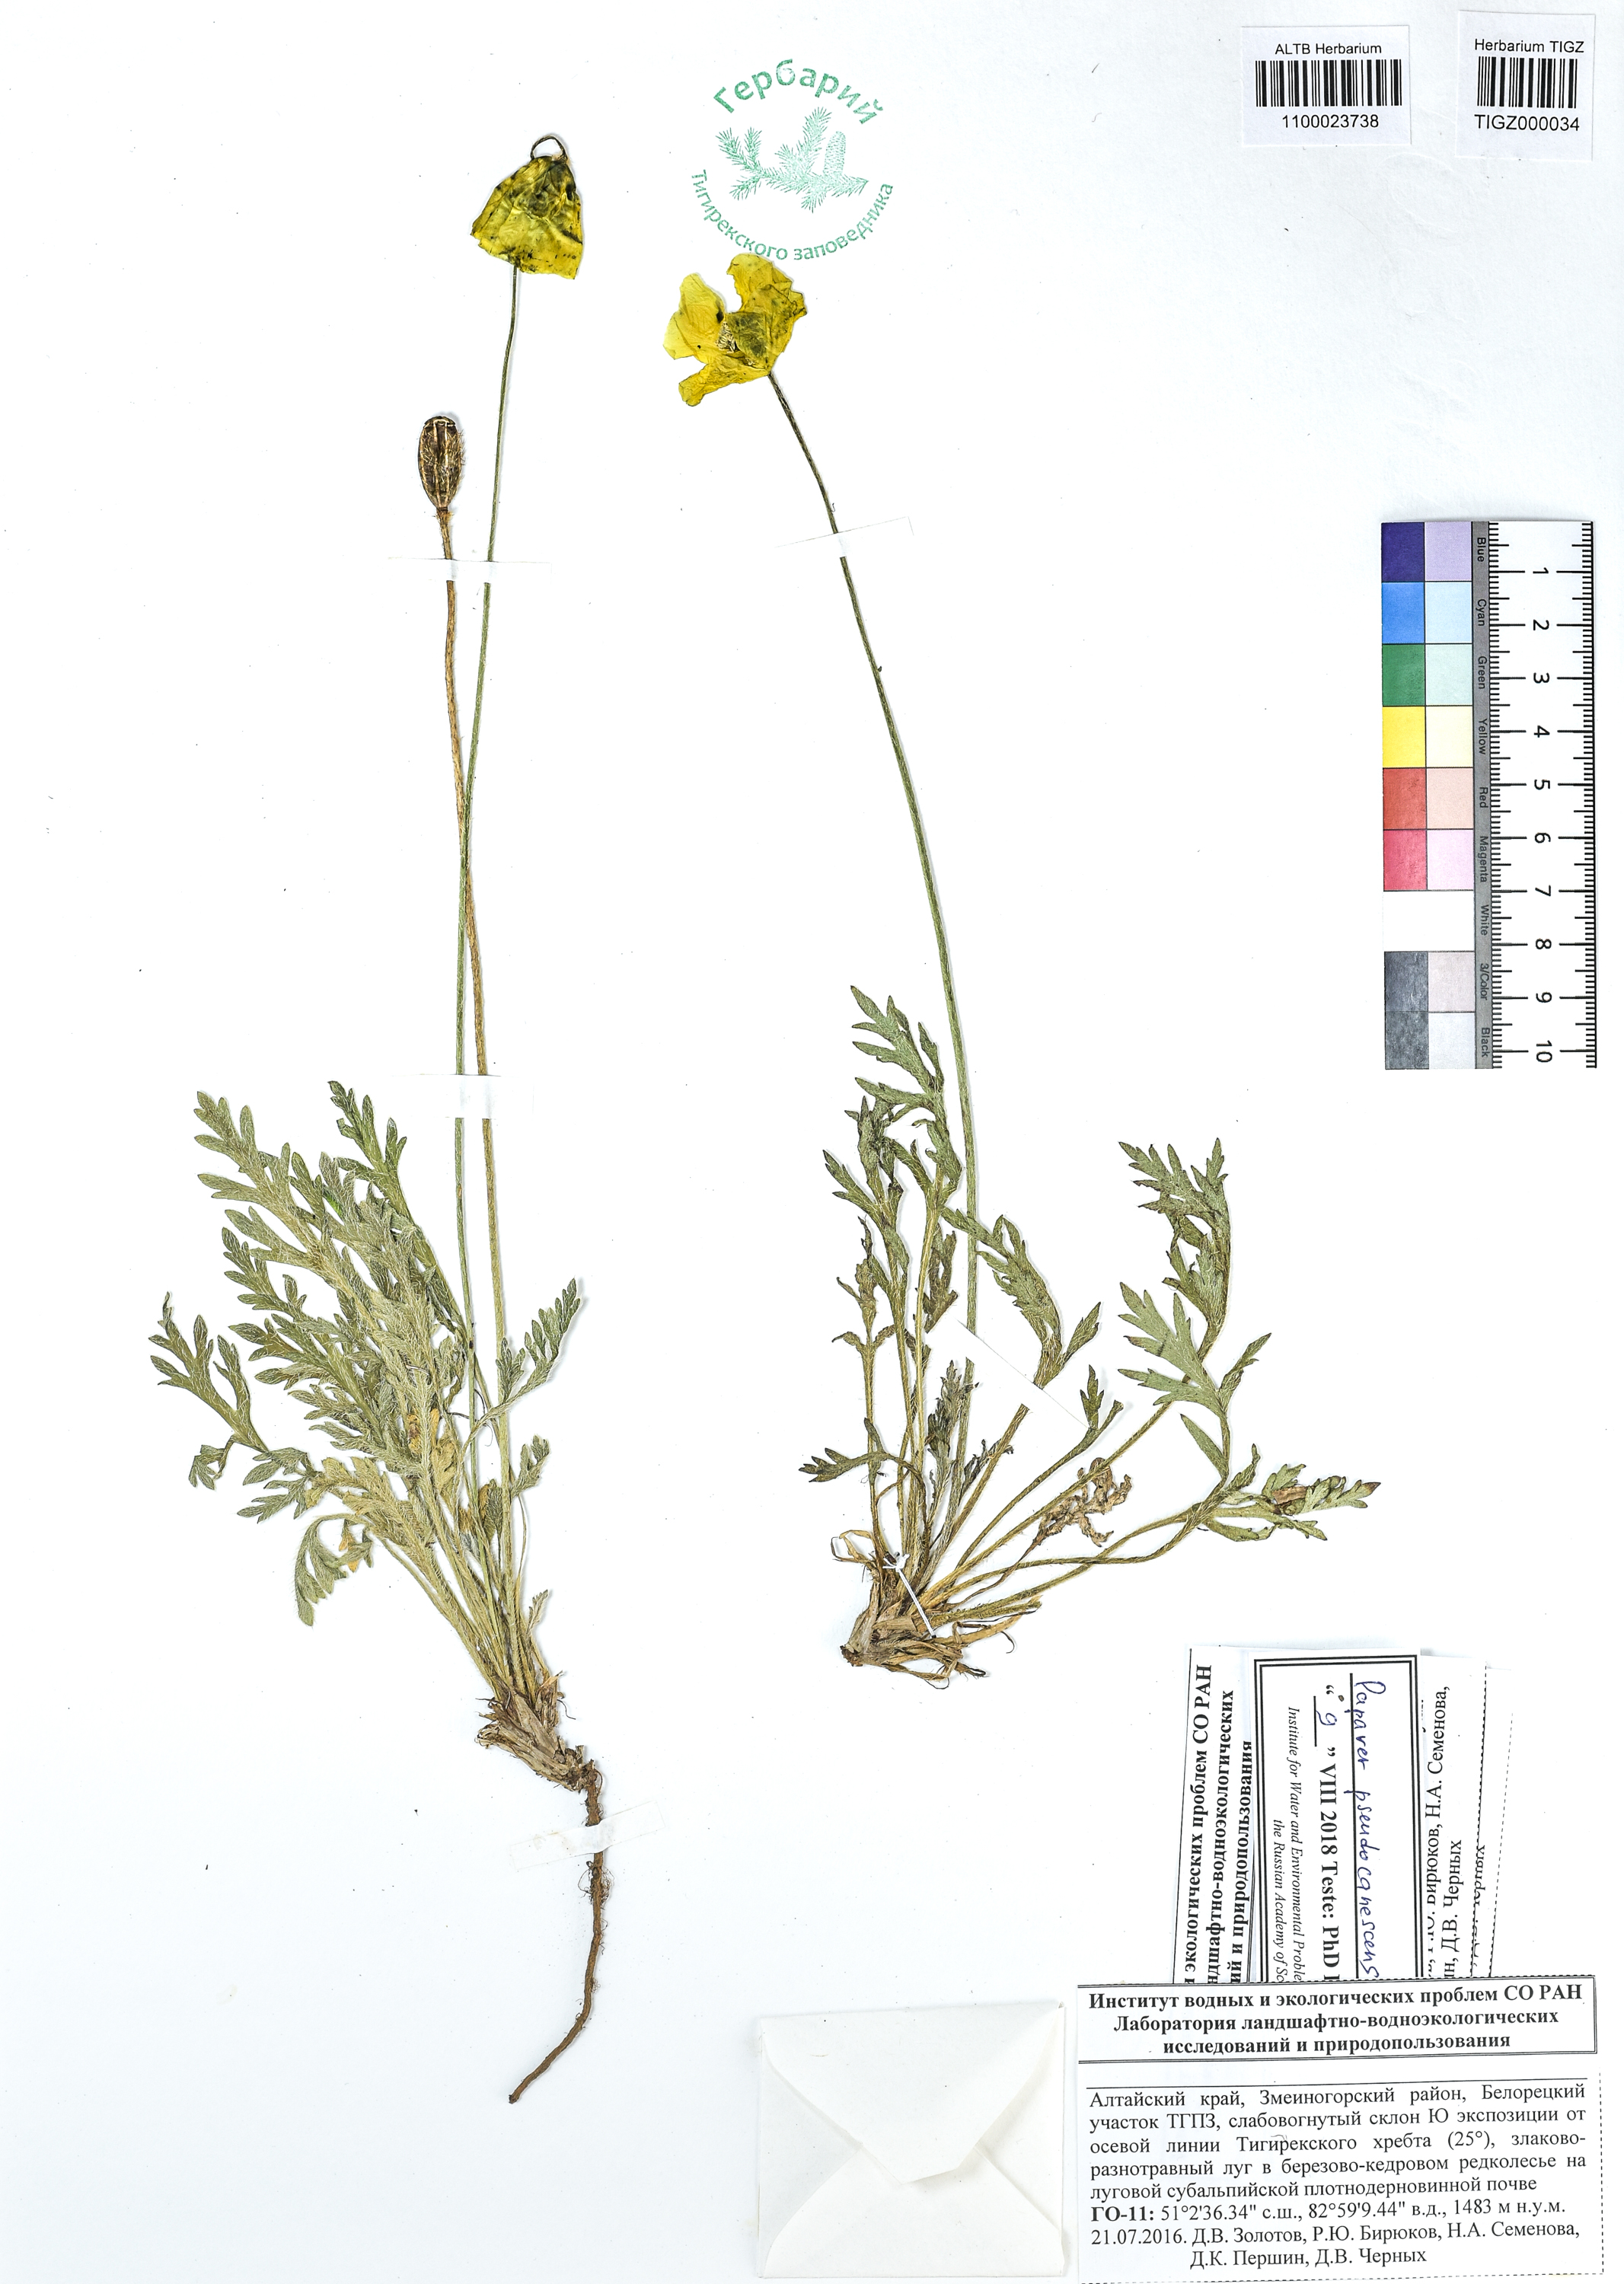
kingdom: Plantae
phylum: Tracheophyta
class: Magnoliopsida
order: Ranunculales
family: Papaveraceae
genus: Papaver
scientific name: Papaver canescens
